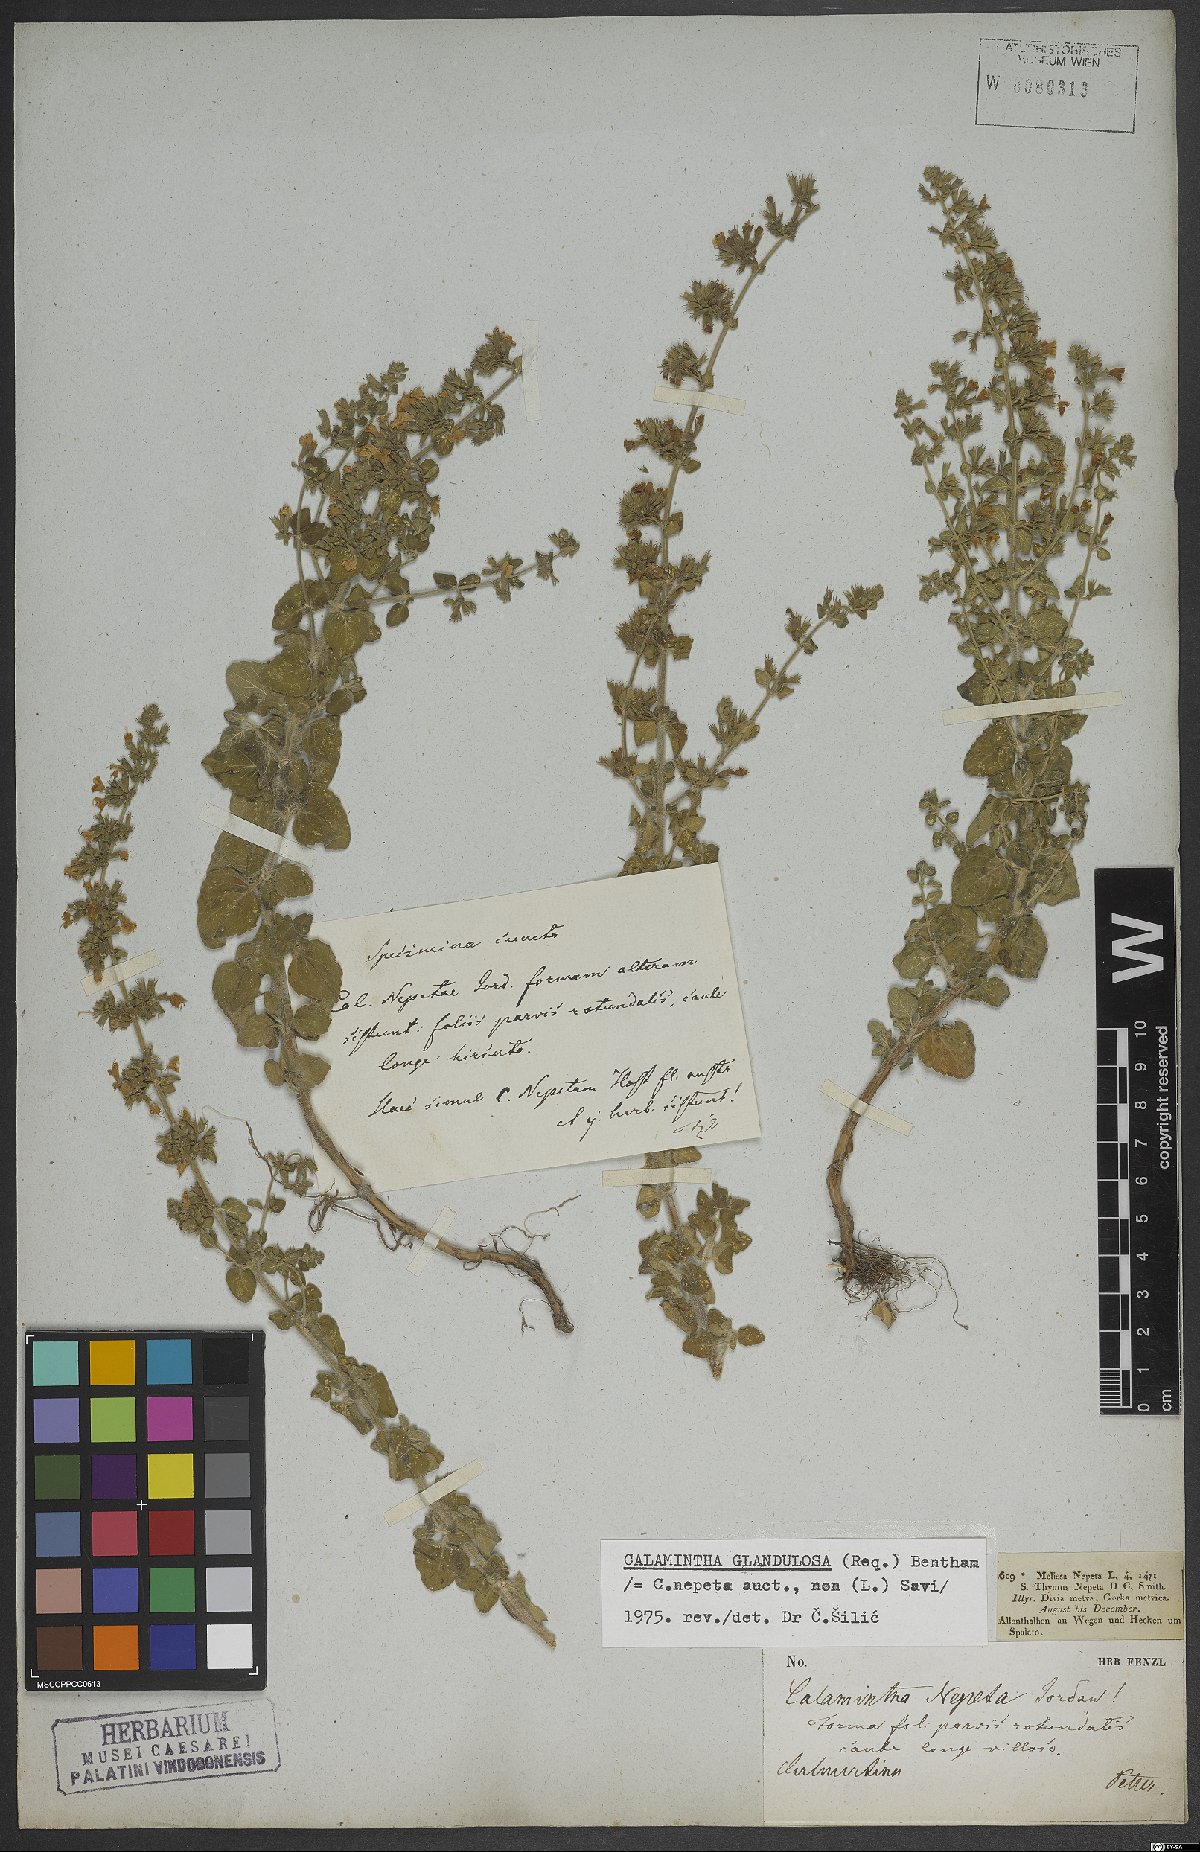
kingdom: Plantae
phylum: Tracheophyta
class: Magnoliopsida
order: Lamiales
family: Lamiaceae
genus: Clinopodium
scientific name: Clinopodium nepeta
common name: Lesser calamint
